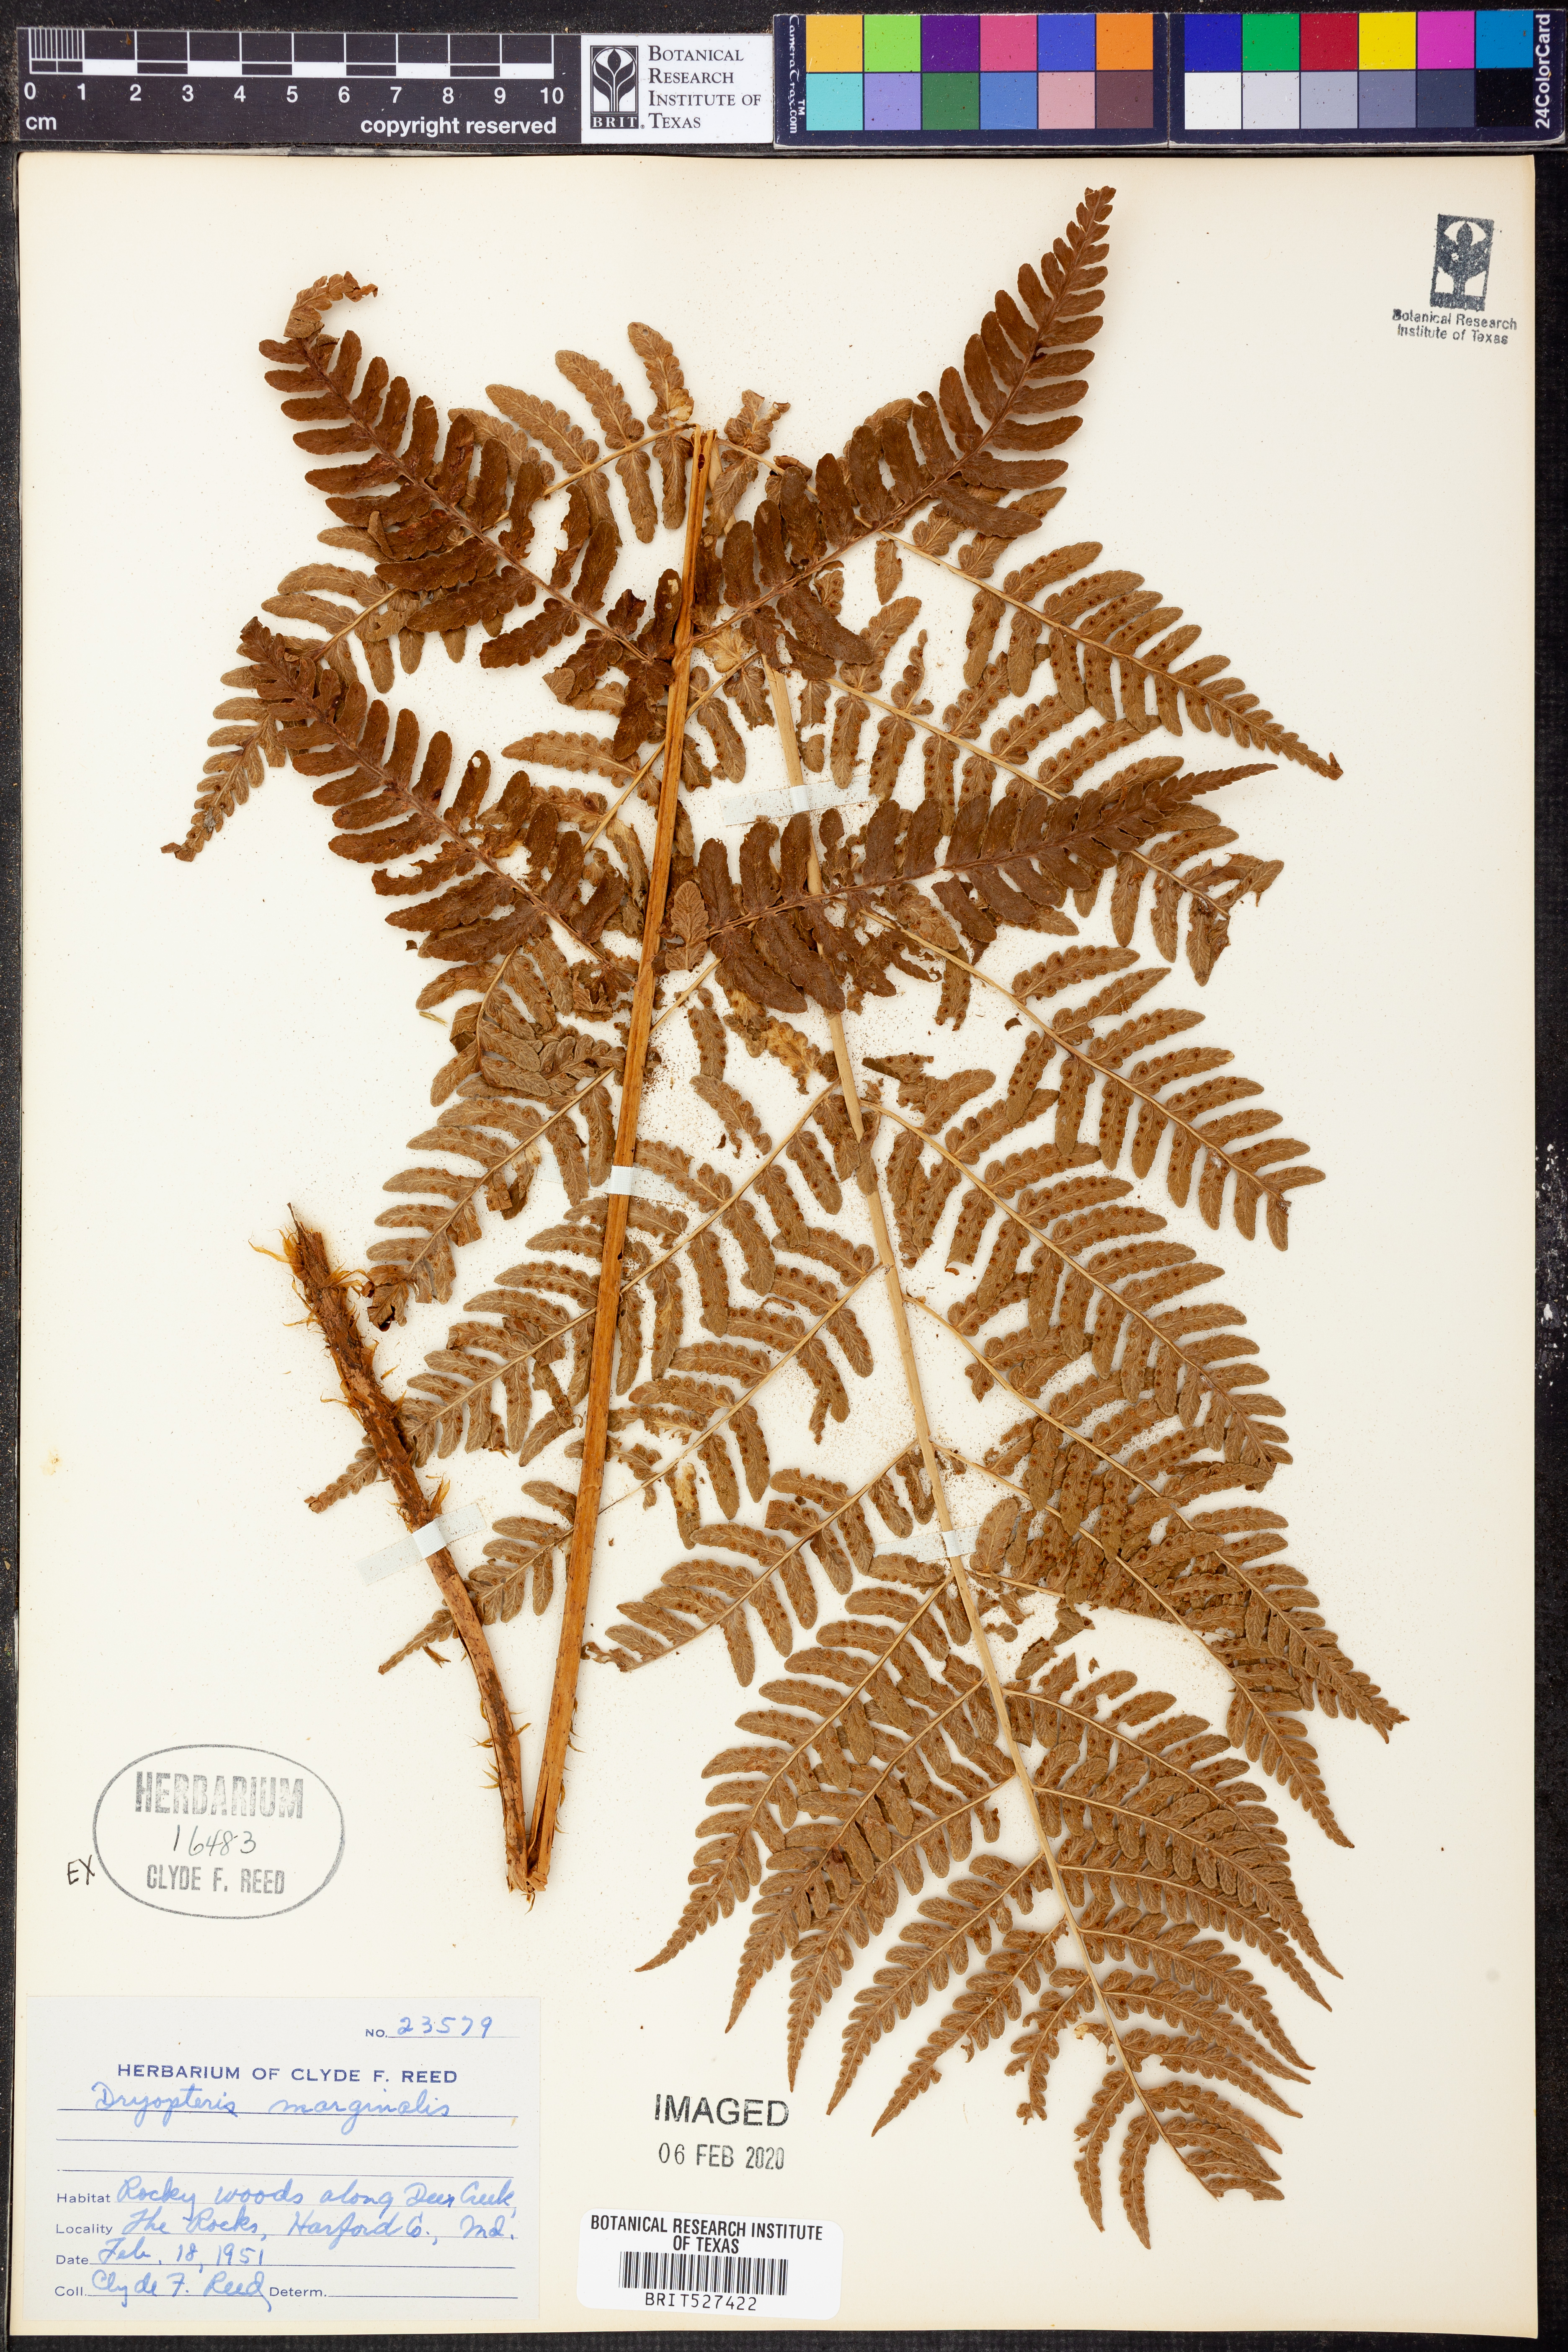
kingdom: Plantae
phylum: Tracheophyta
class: Polypodiopsida
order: Polypodiales
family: Dryopteridaceae
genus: Dryopteris
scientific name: Dryopteris marginalis
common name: Marginal wood fern
